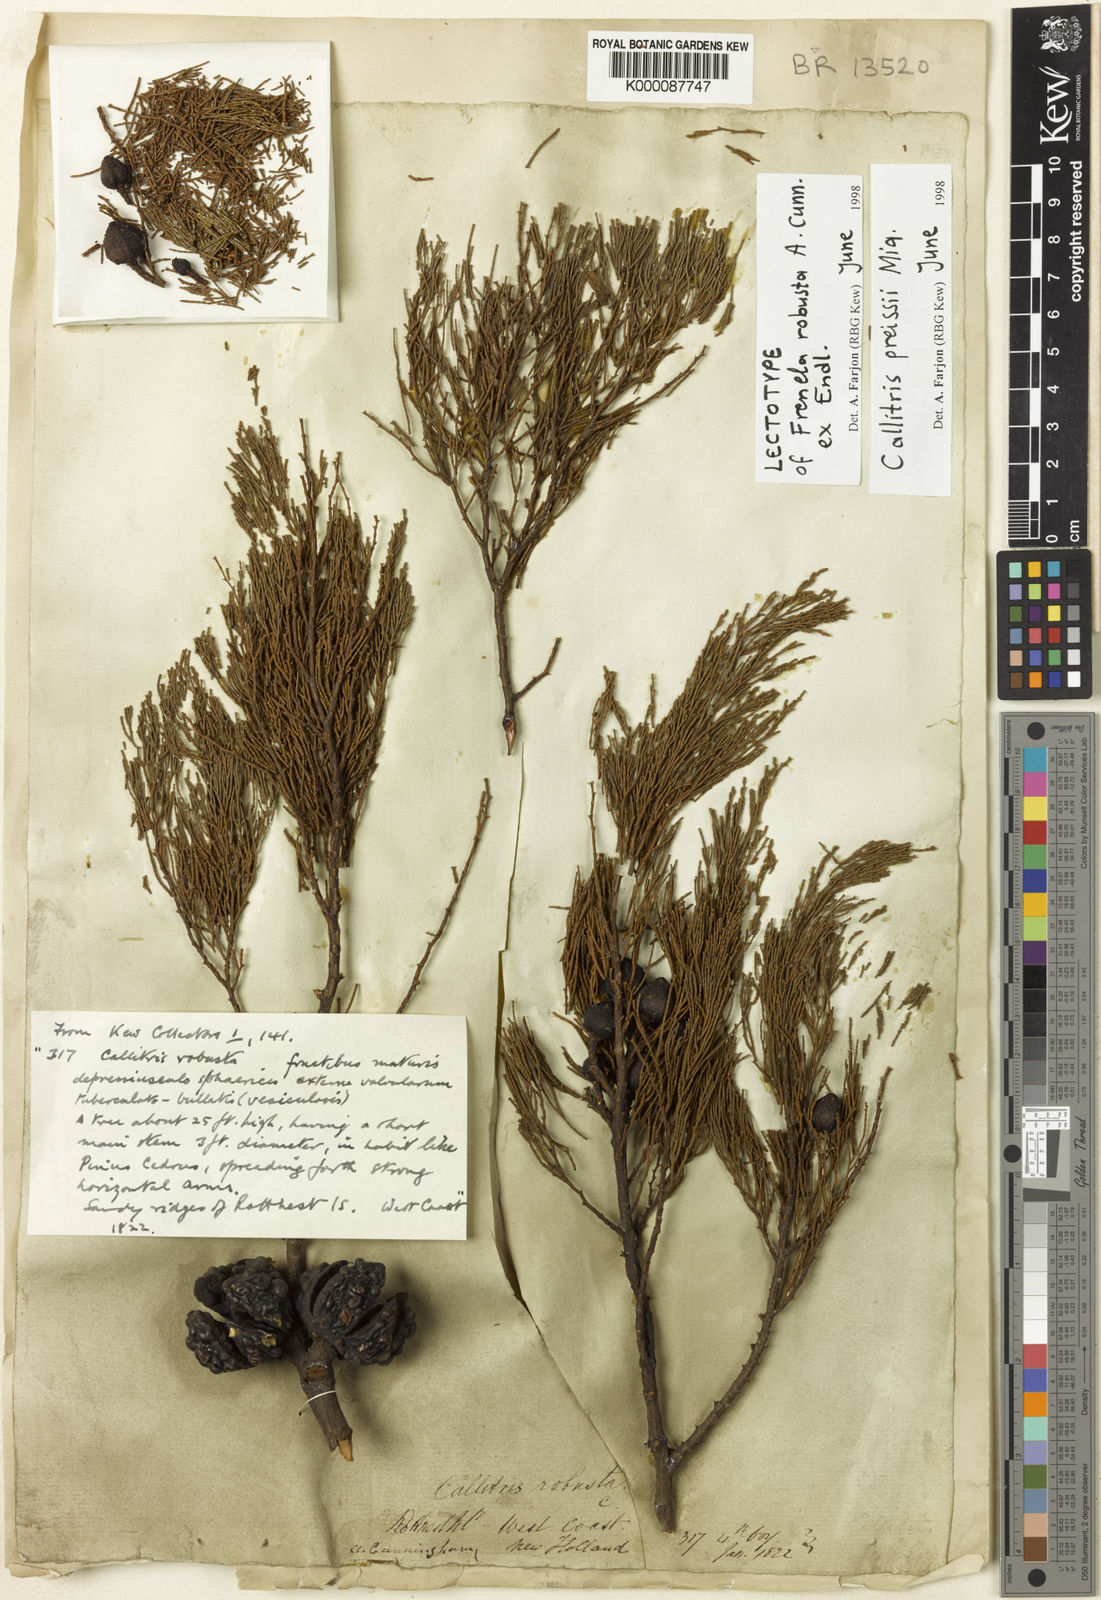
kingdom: Plantae
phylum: Tracheophyta
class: Pinopsida
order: Pinales
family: Cupressaceae
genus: Callitris
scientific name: Callitris preissii
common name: Mallee pine
